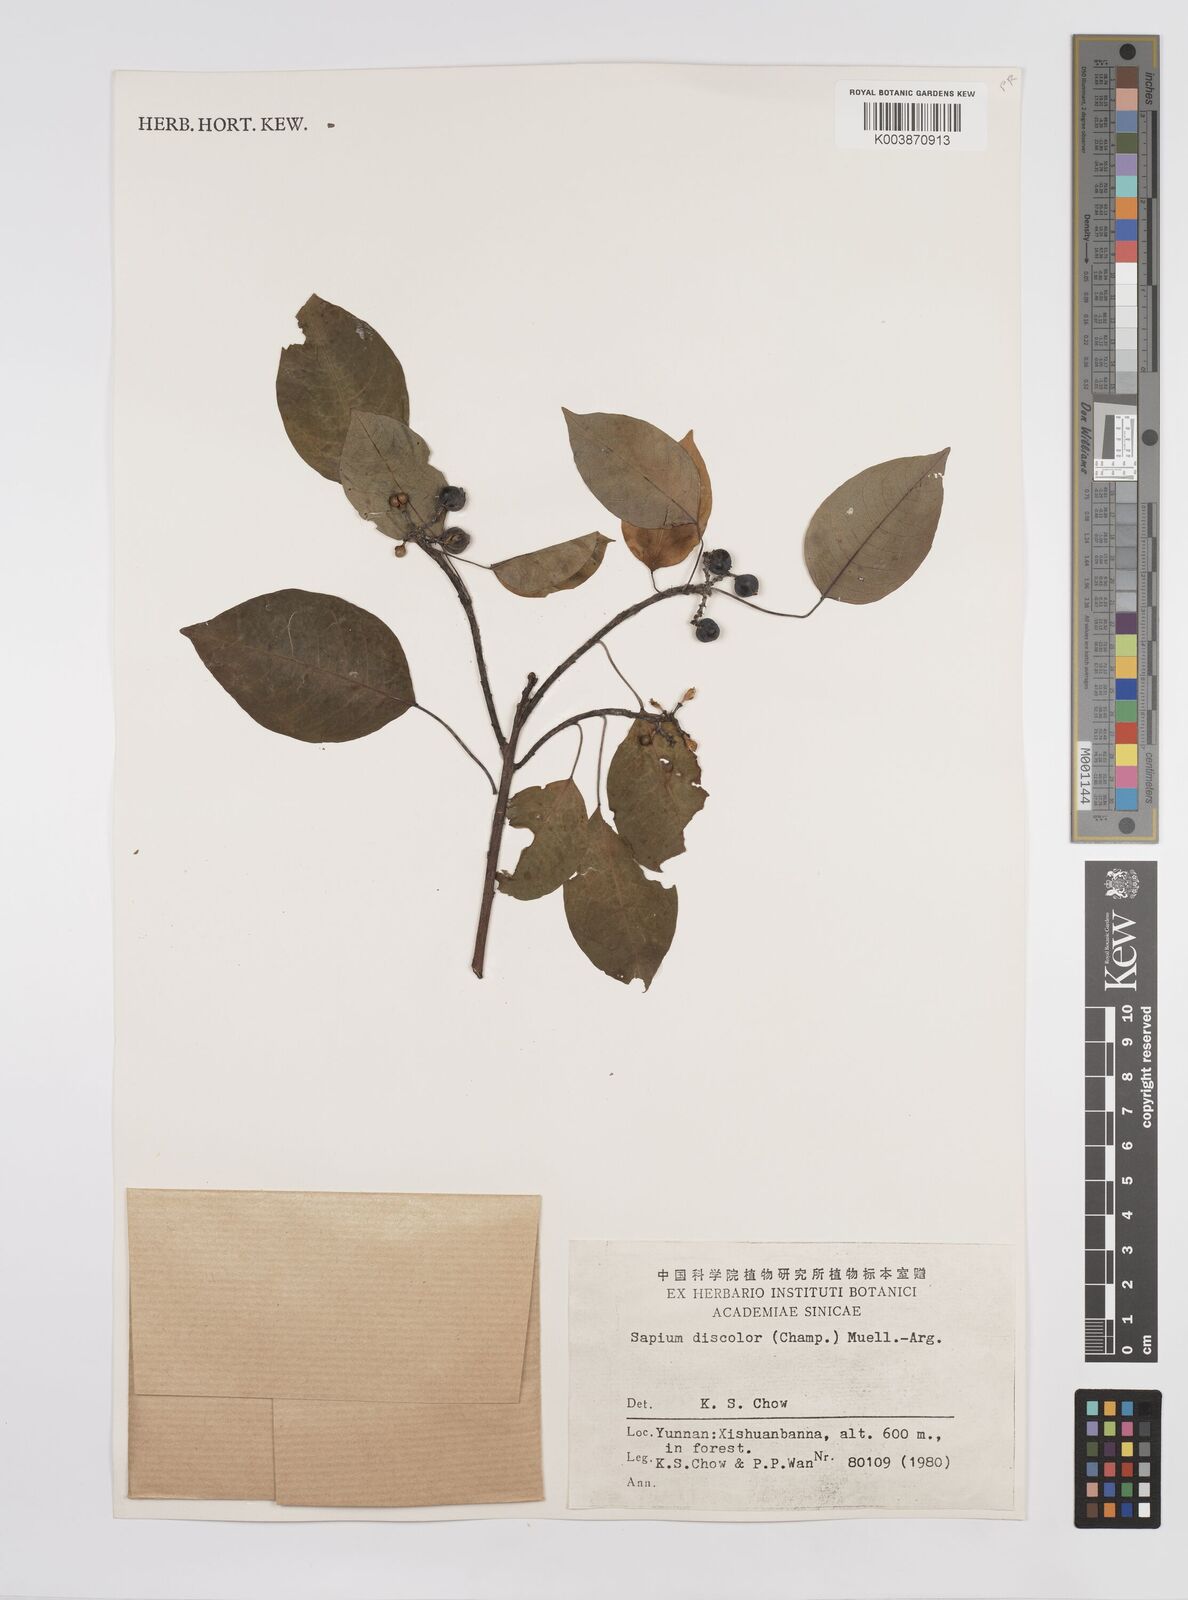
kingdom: Plantae
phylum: Tracheophyta
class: Magnoliopsida
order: Malpighiales
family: Euphorbiaceae
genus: Triadica
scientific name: Triadica cochinchinensis
